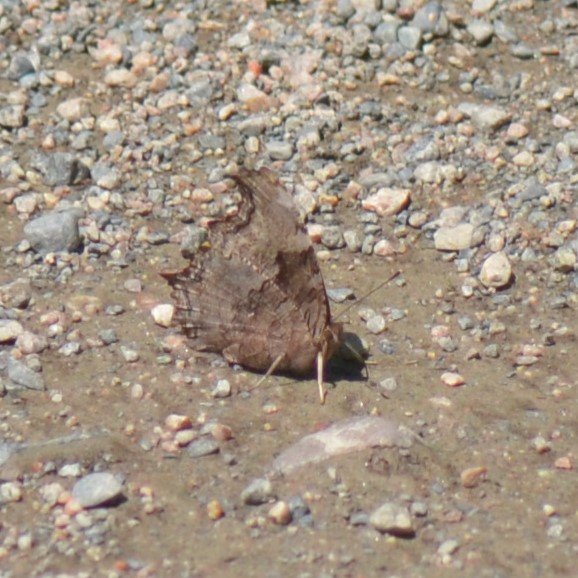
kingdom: Animalia
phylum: Arthropoda
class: Insecta
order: Lepidoptera
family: Nymphalidae
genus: Polygonia
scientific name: Polygonia vaualbum
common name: Compton Tortoiseshell
